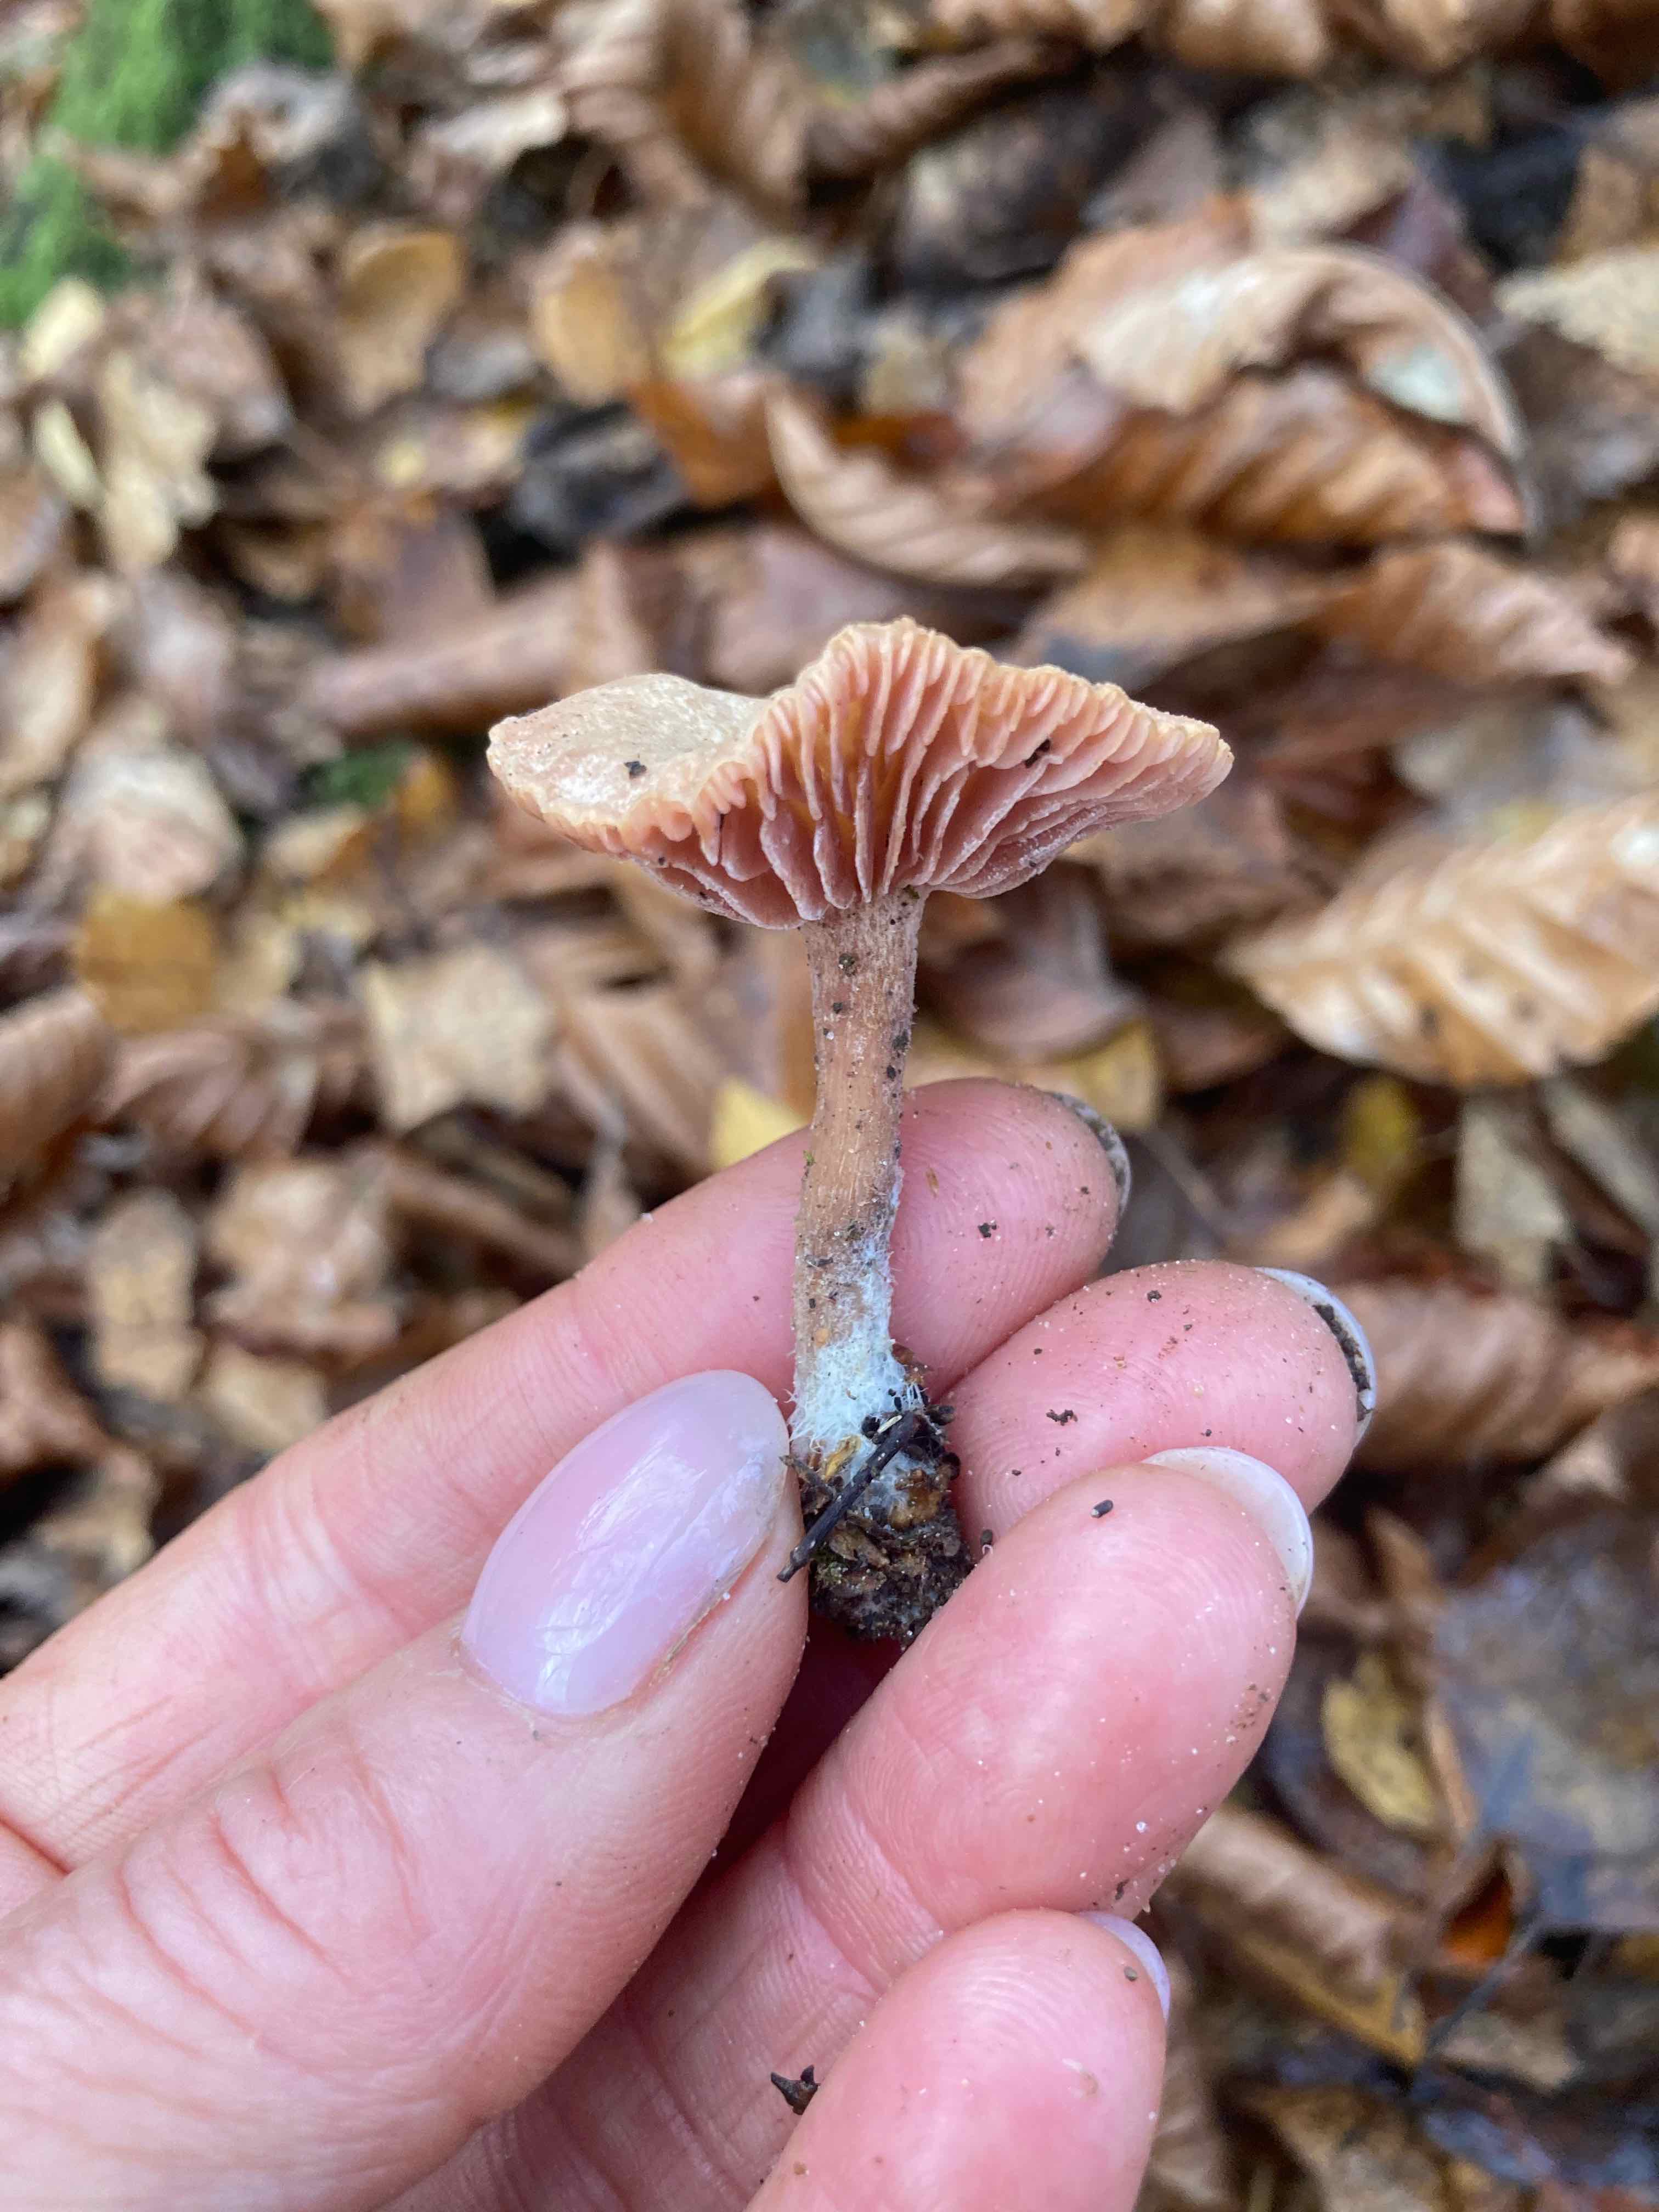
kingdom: Fungi
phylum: Basidiomycota
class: Agaricomycetes
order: Agaricales
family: Hydnangiaceae
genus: Laccaria
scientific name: Laccaria laccata
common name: rød ametysthat
